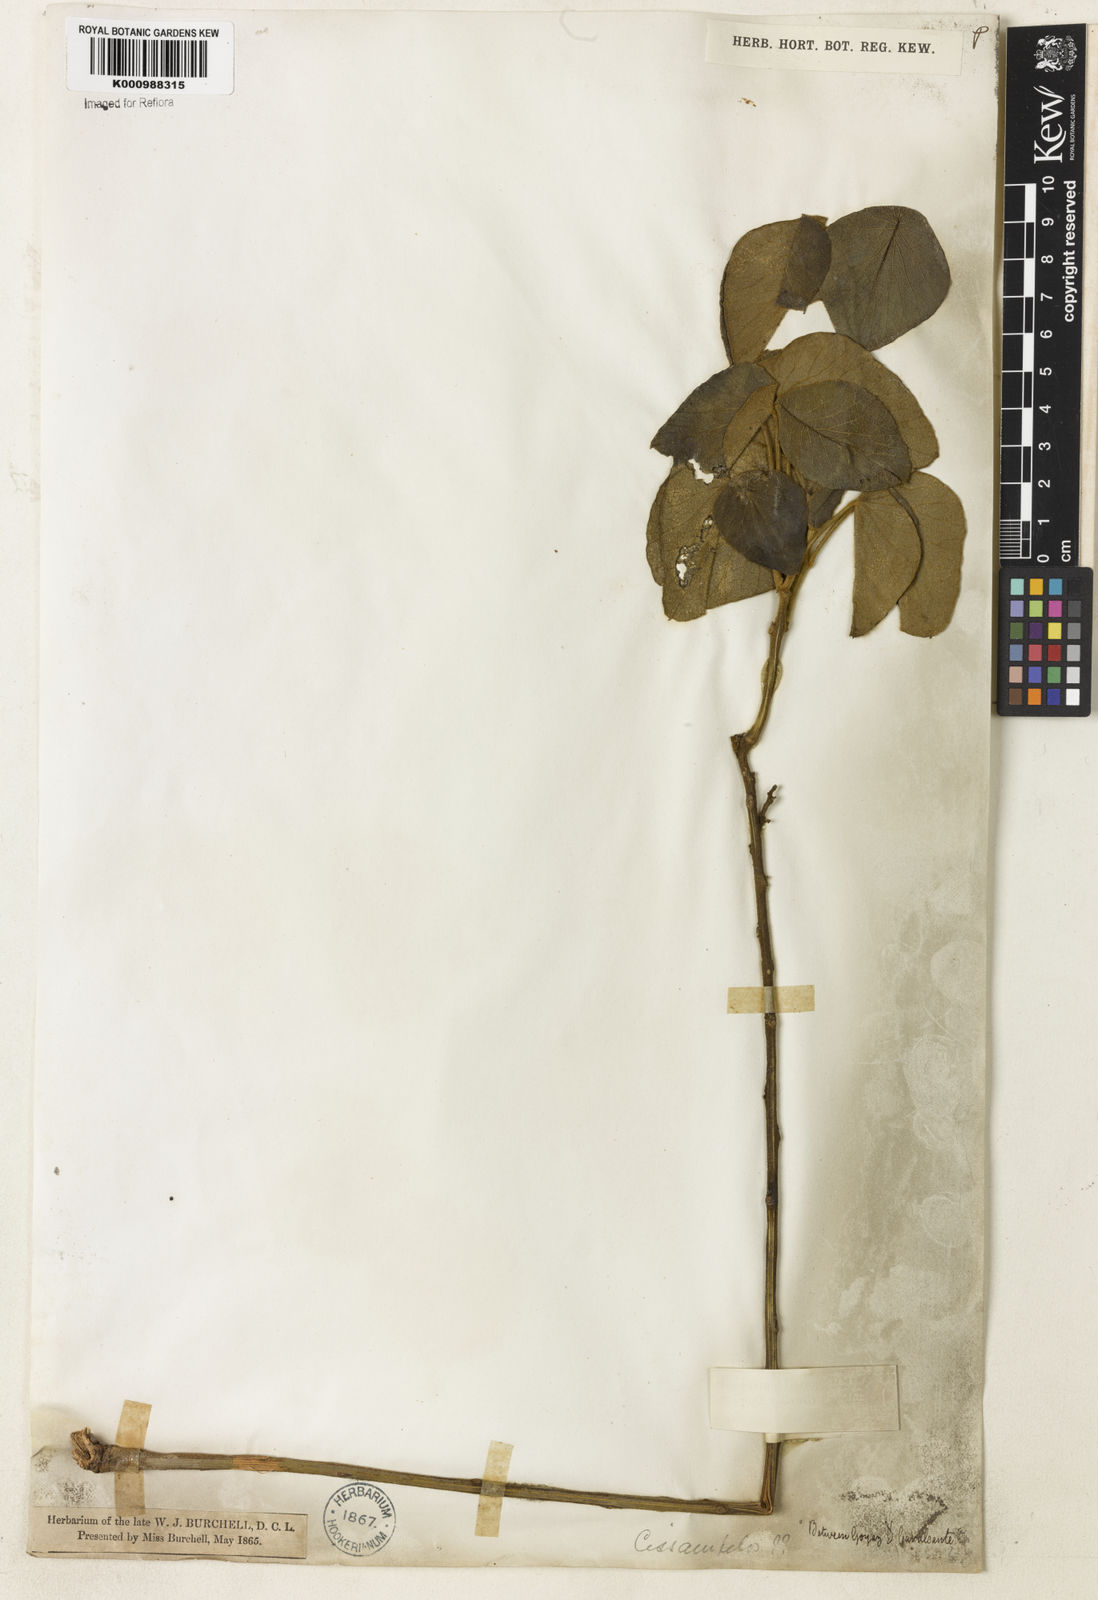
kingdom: Plantae
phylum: Tracheophyta
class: Magnoliopsida
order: Ranunculales
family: Menispermaceae
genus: Cissampelos
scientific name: Cissampelos ovalifolia
